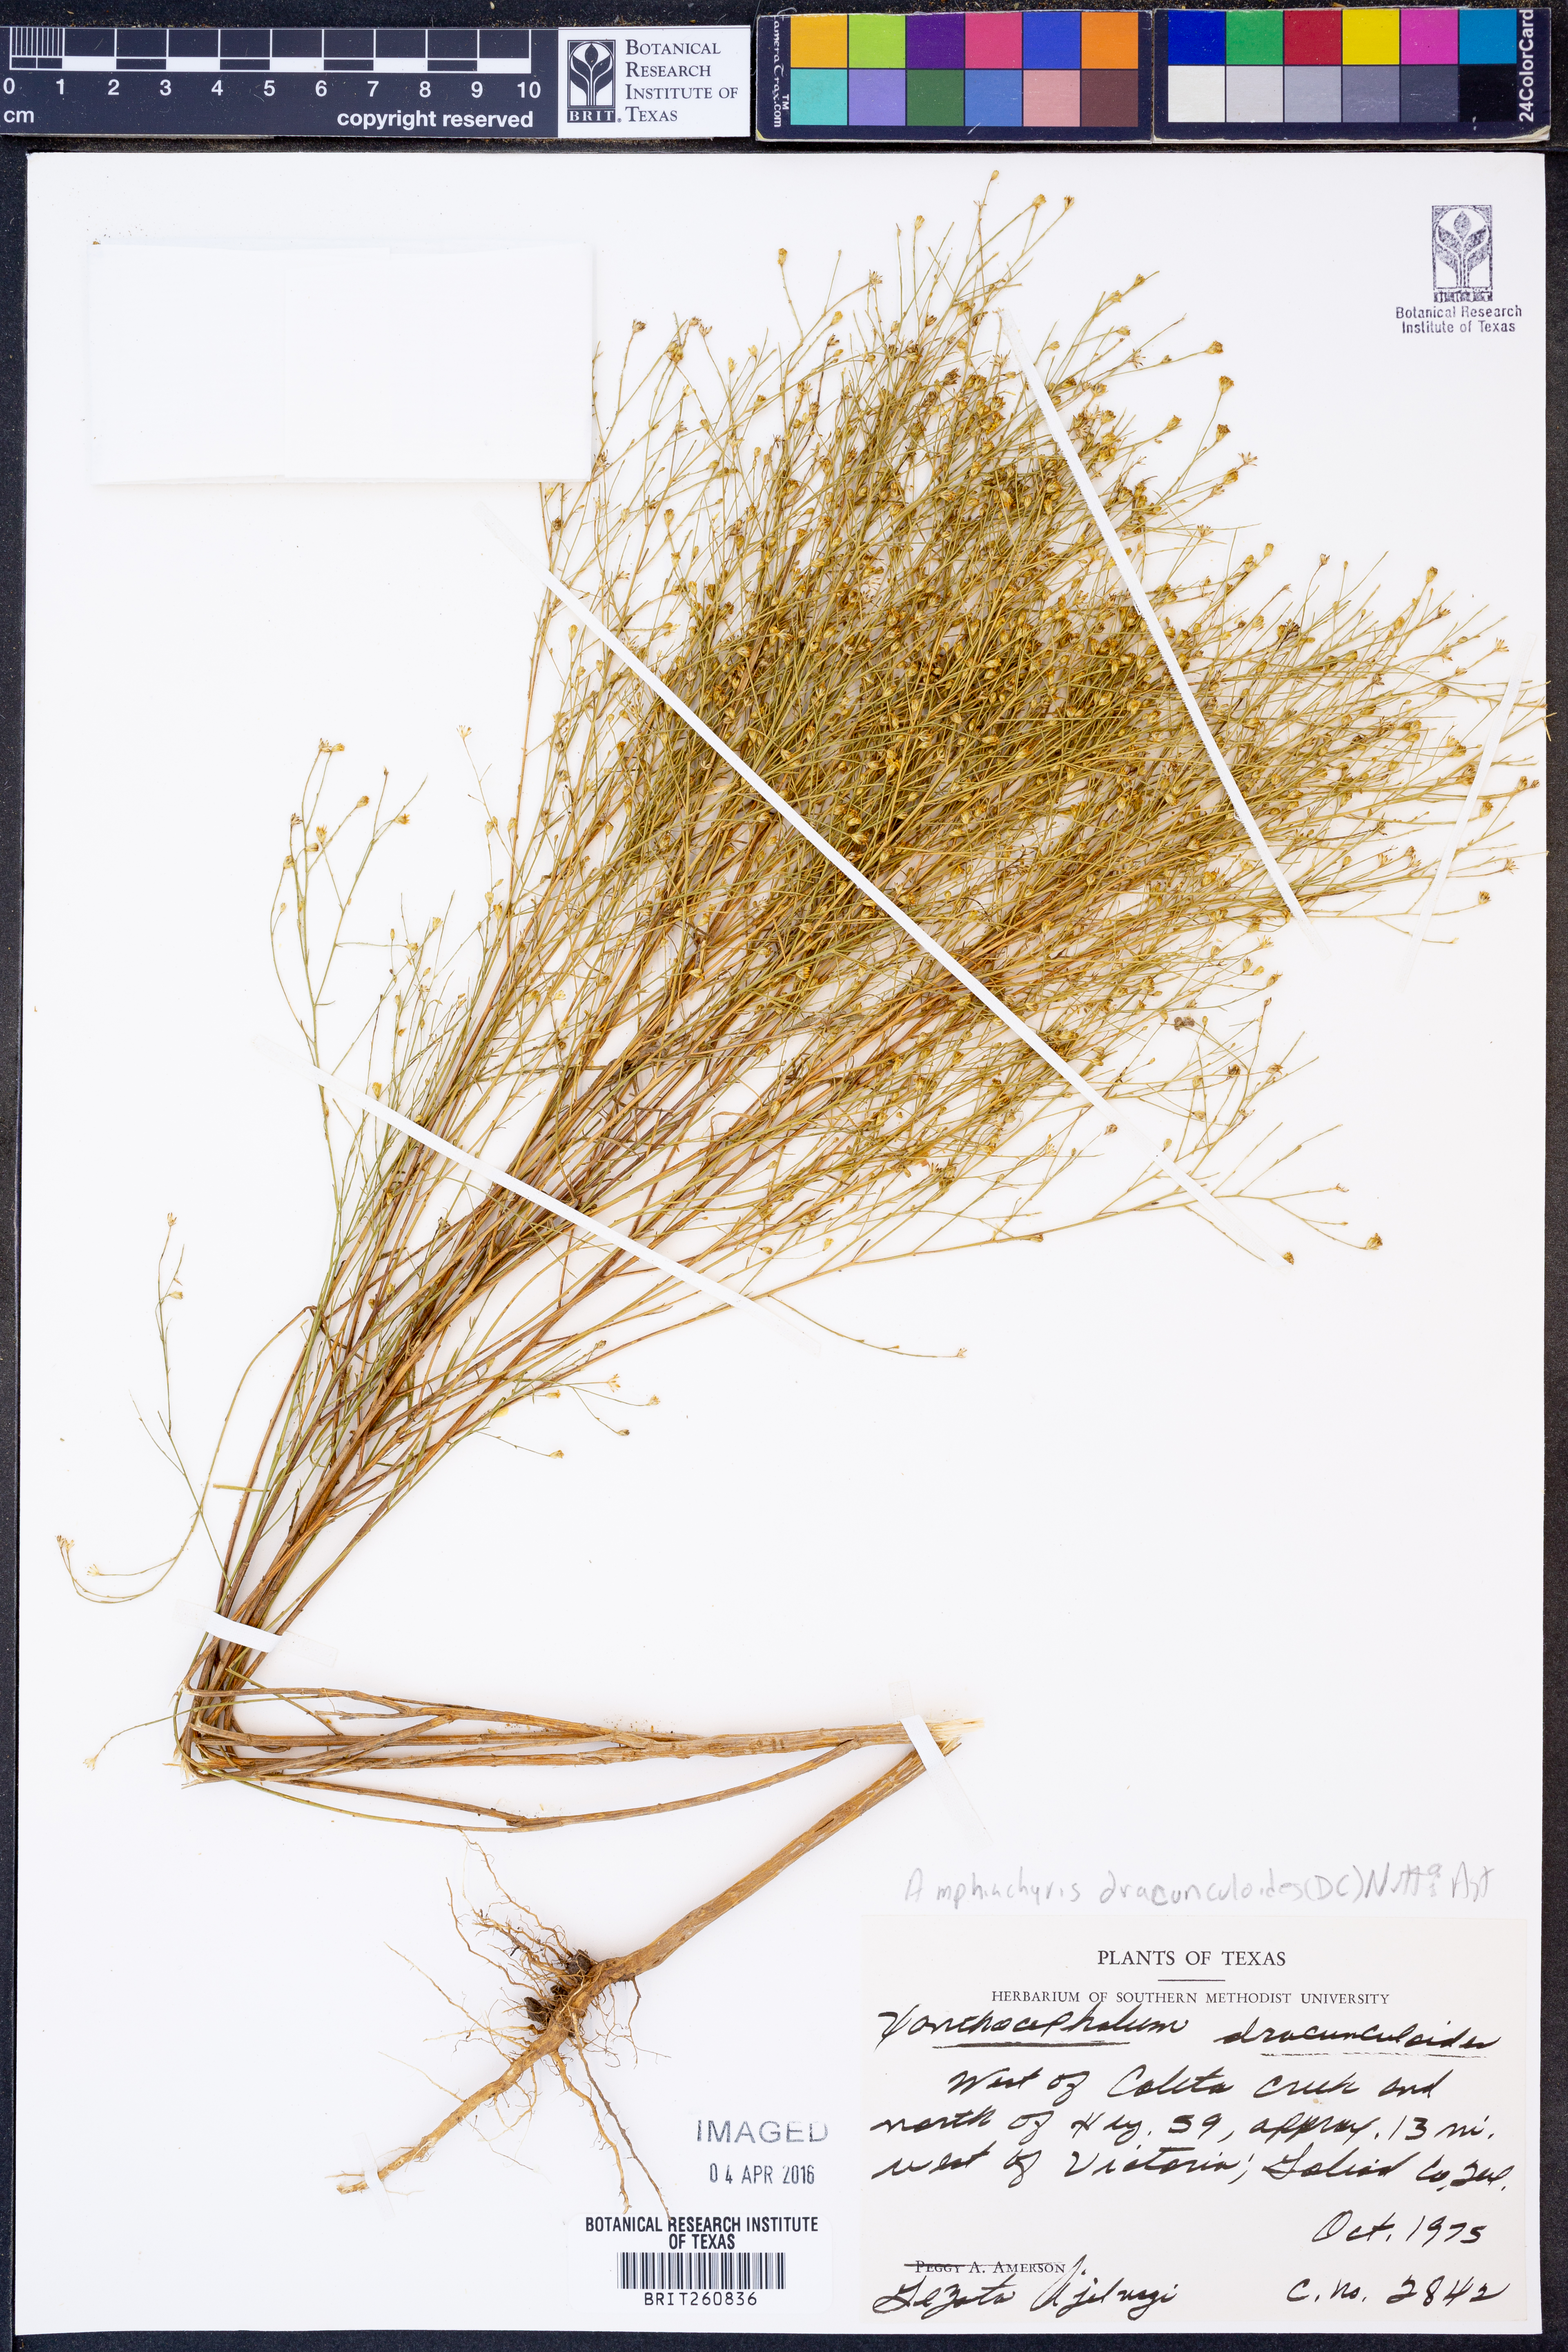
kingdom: Plantae
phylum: Tracheophyta
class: Magnoliopsida
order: Asterales
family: Asteraceae
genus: Amphiachyris
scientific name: Amphiachyris dracunculoides
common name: Broomweed
